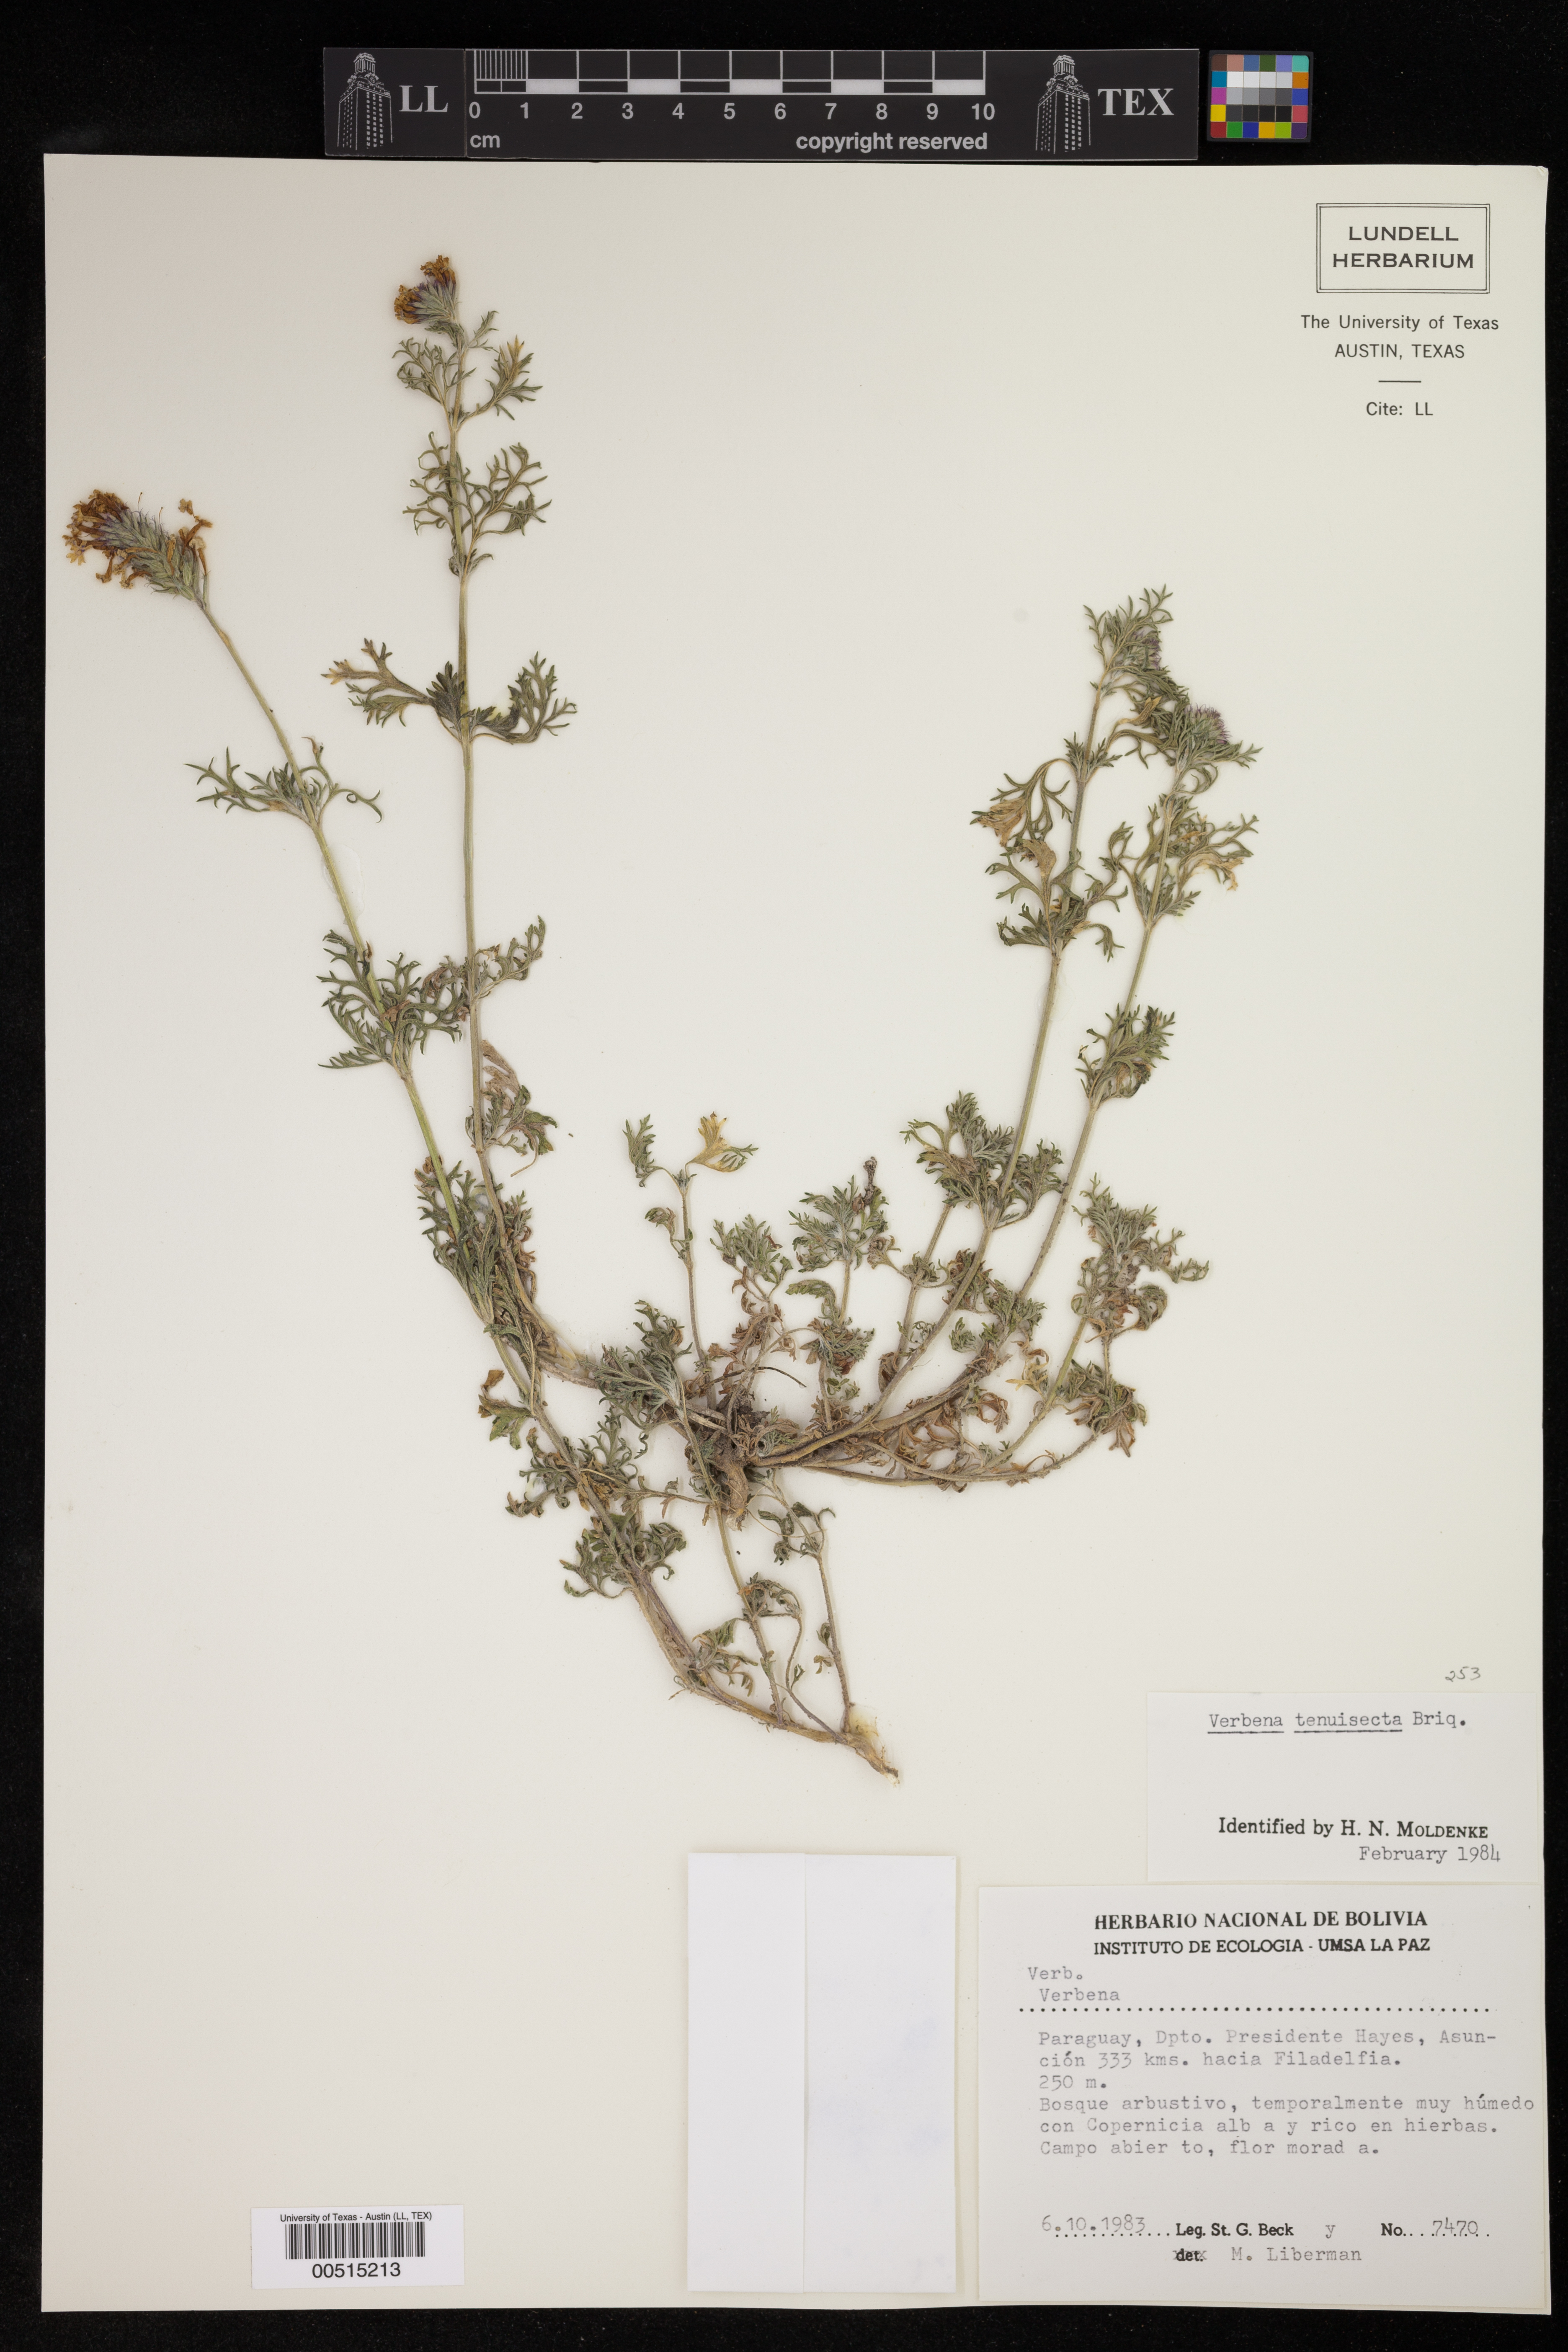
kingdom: Plantae
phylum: Tracheophyta
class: Magnoliopsida
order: Lamiales
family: Verbenaceae
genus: Verbena
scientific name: Verbena tenera
